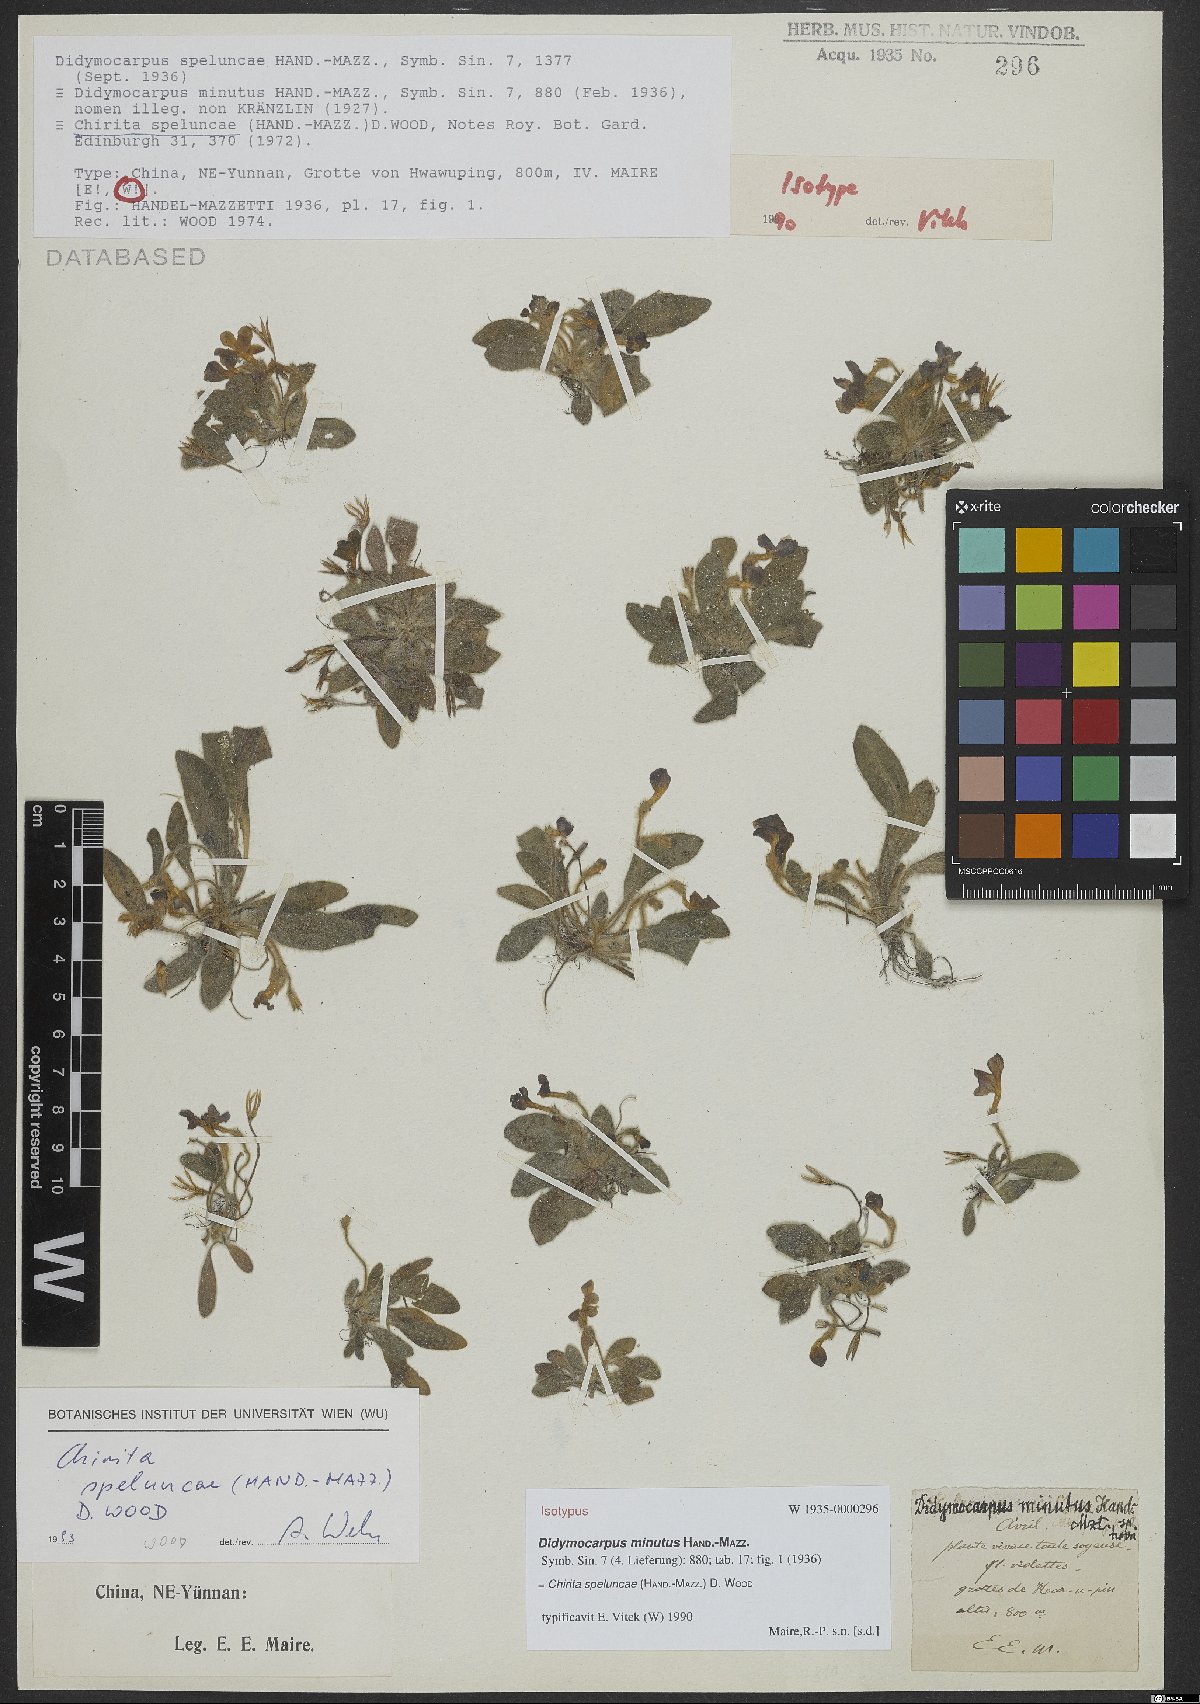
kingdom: Plantae
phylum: Tracheophyta
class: Magnoliopsida
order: Lamiales
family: Gesneriaceae
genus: Primulina
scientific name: Primulina speluncae
